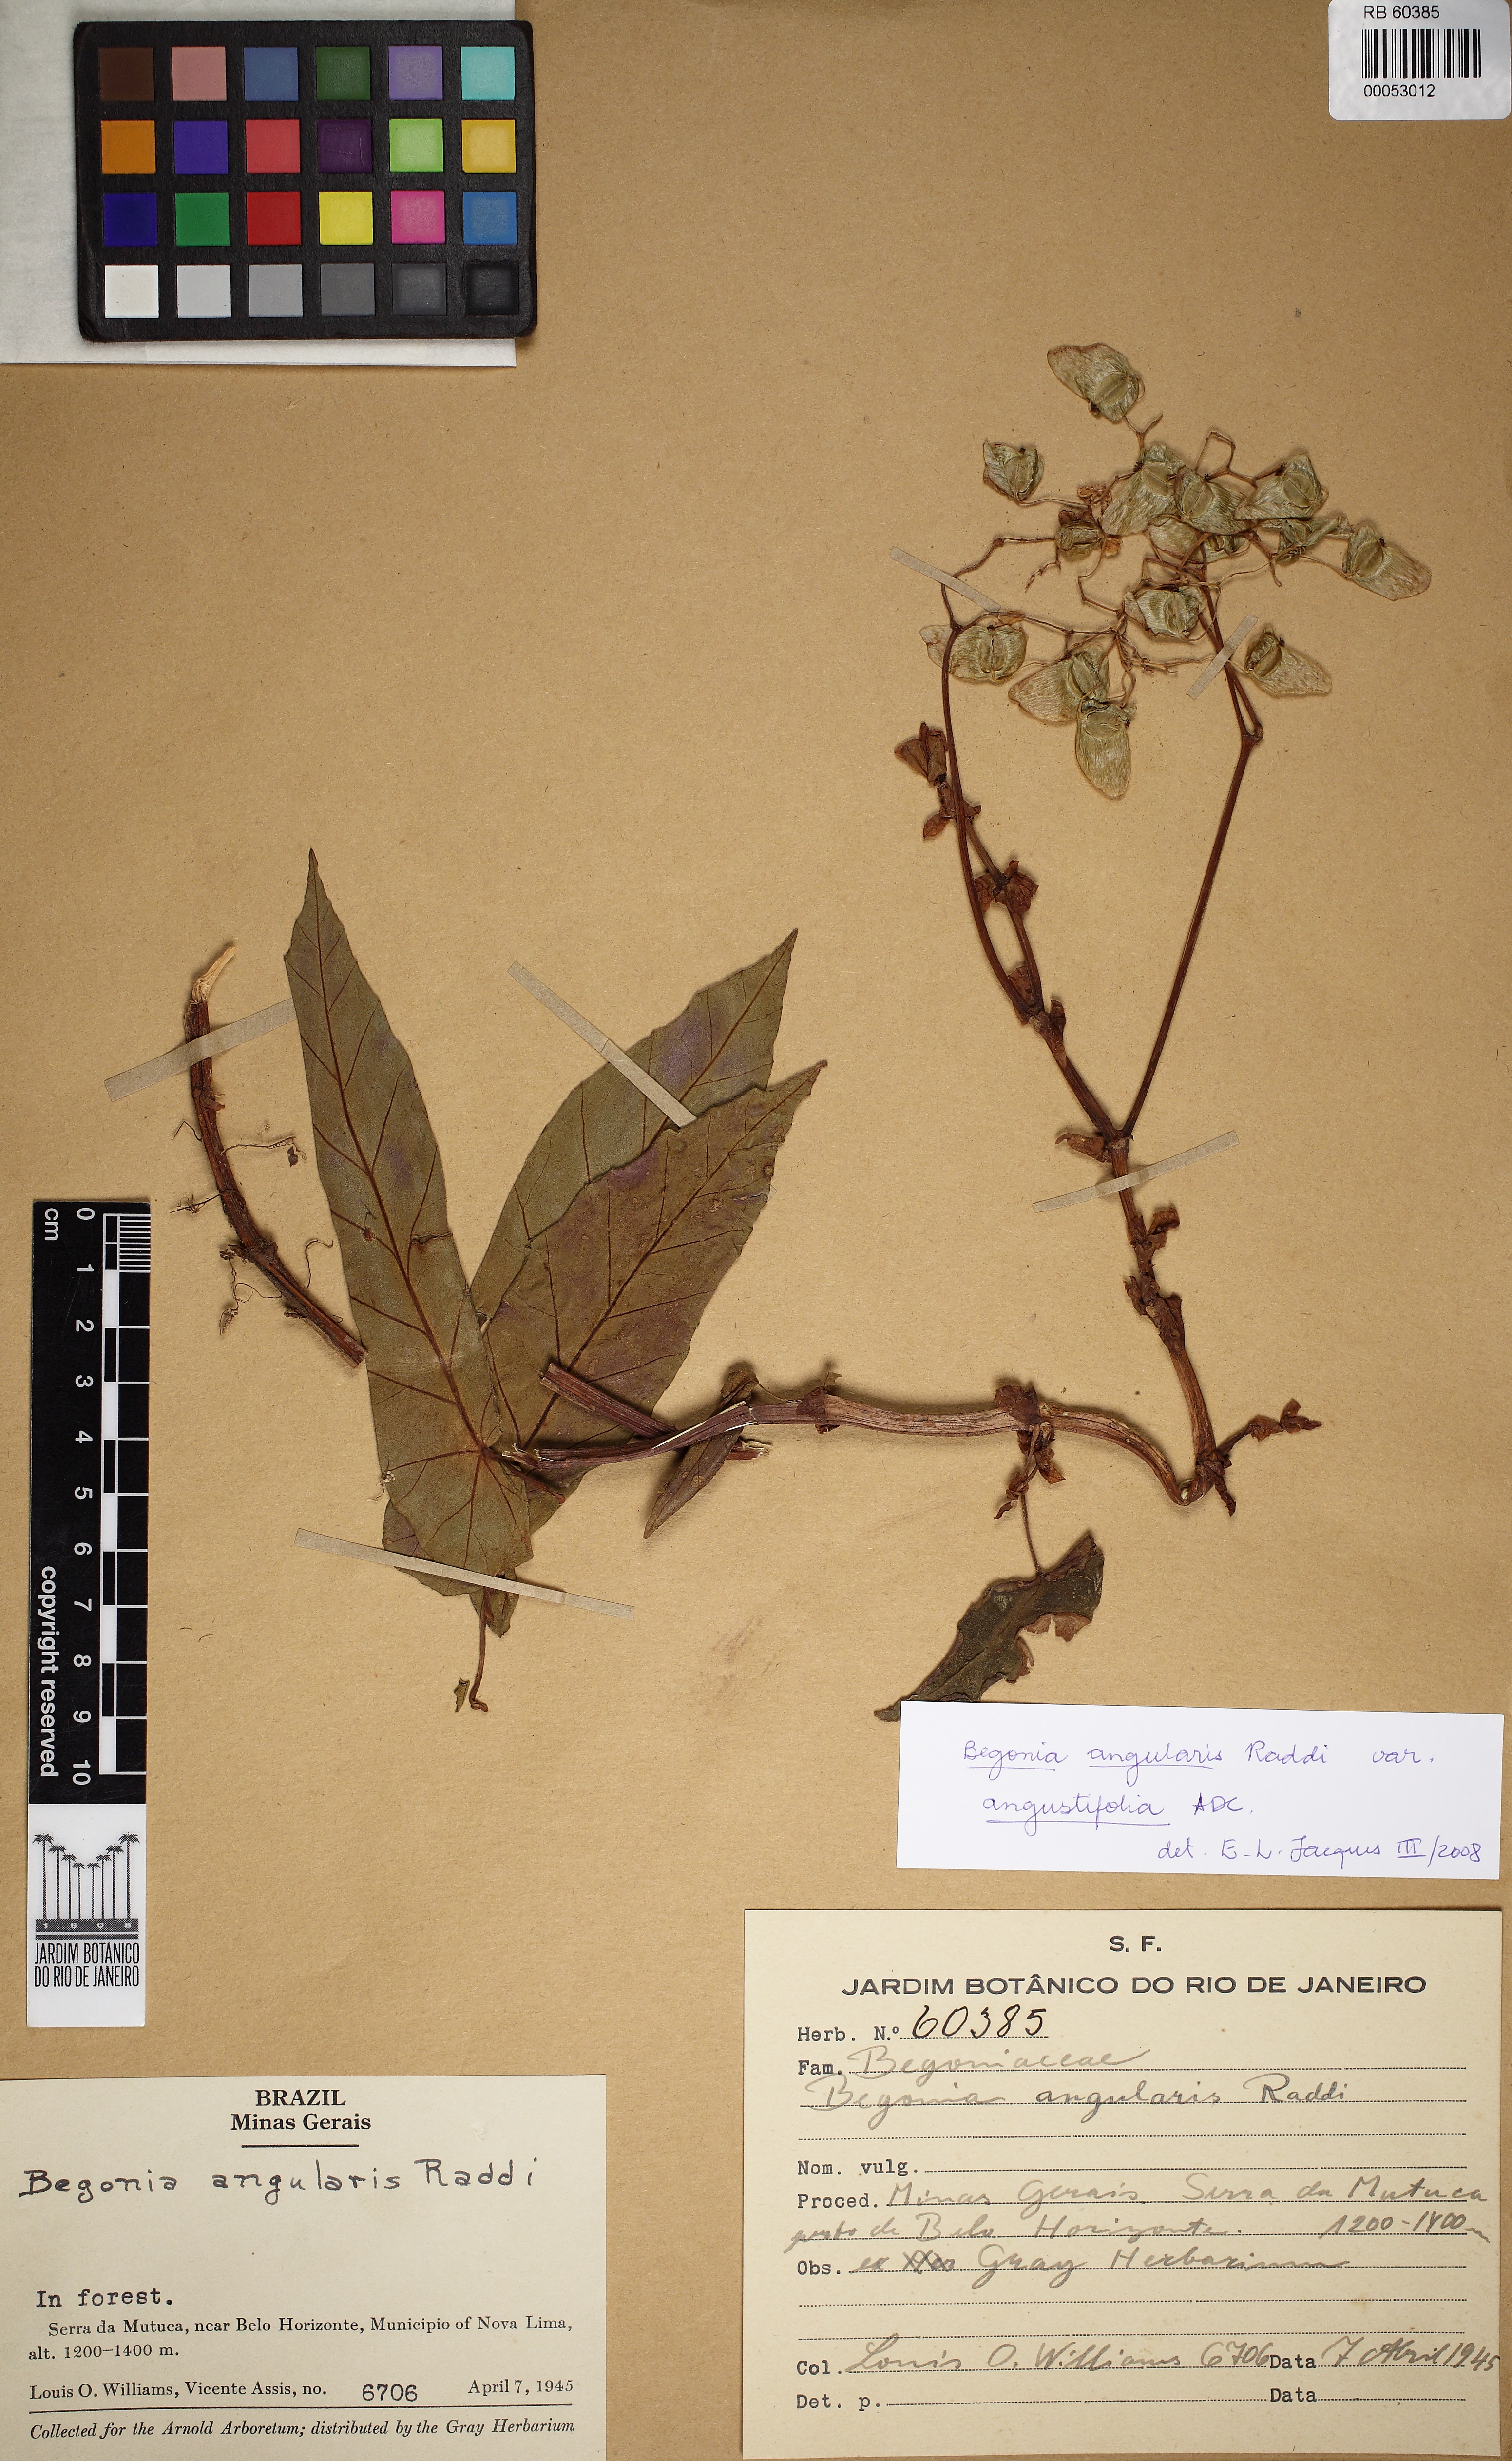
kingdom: Plantae
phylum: Tracheophyta
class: Magnoliopsida
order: Cucurbitales
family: Begoniaceae
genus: Begonia
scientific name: Begonia angularis
